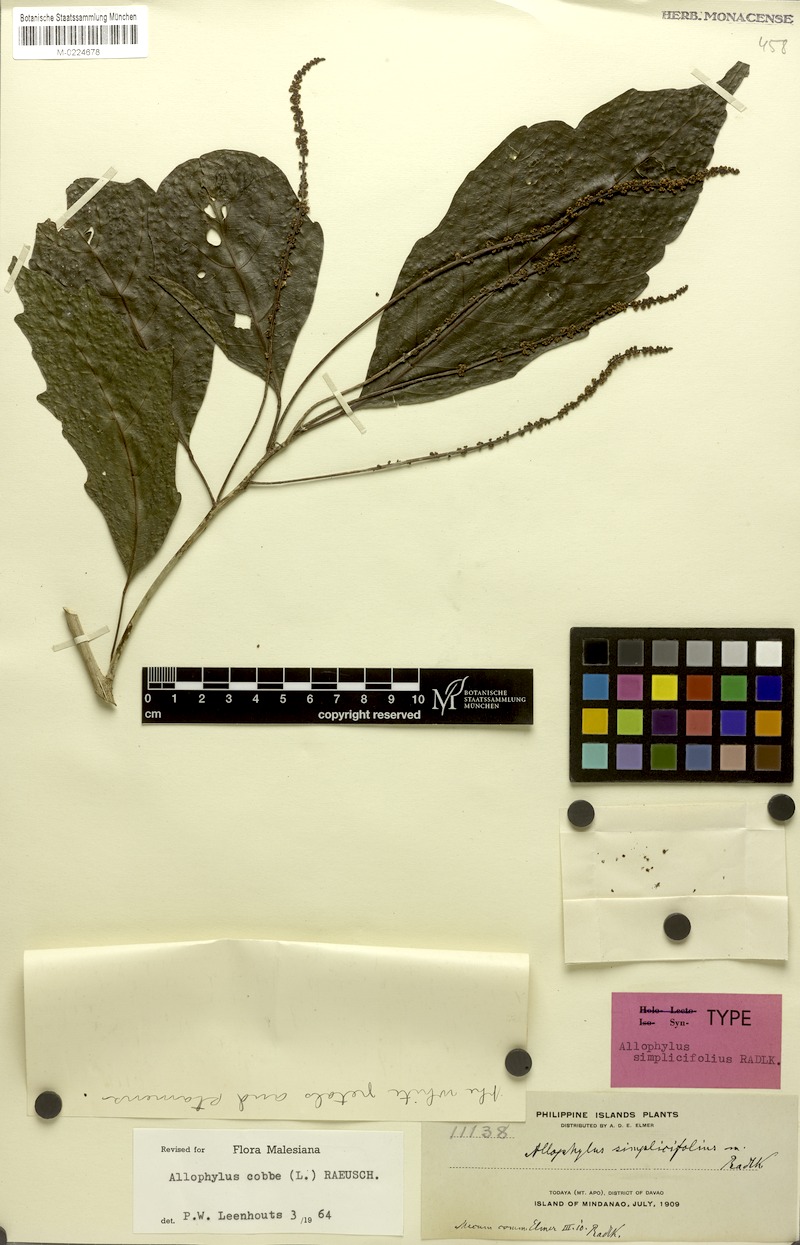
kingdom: Plantae
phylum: Tracheophyta
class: Magnoliopsida
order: Sapindales
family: Sapindaceae
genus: Allophylus
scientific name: Allophylus simplicifolius
